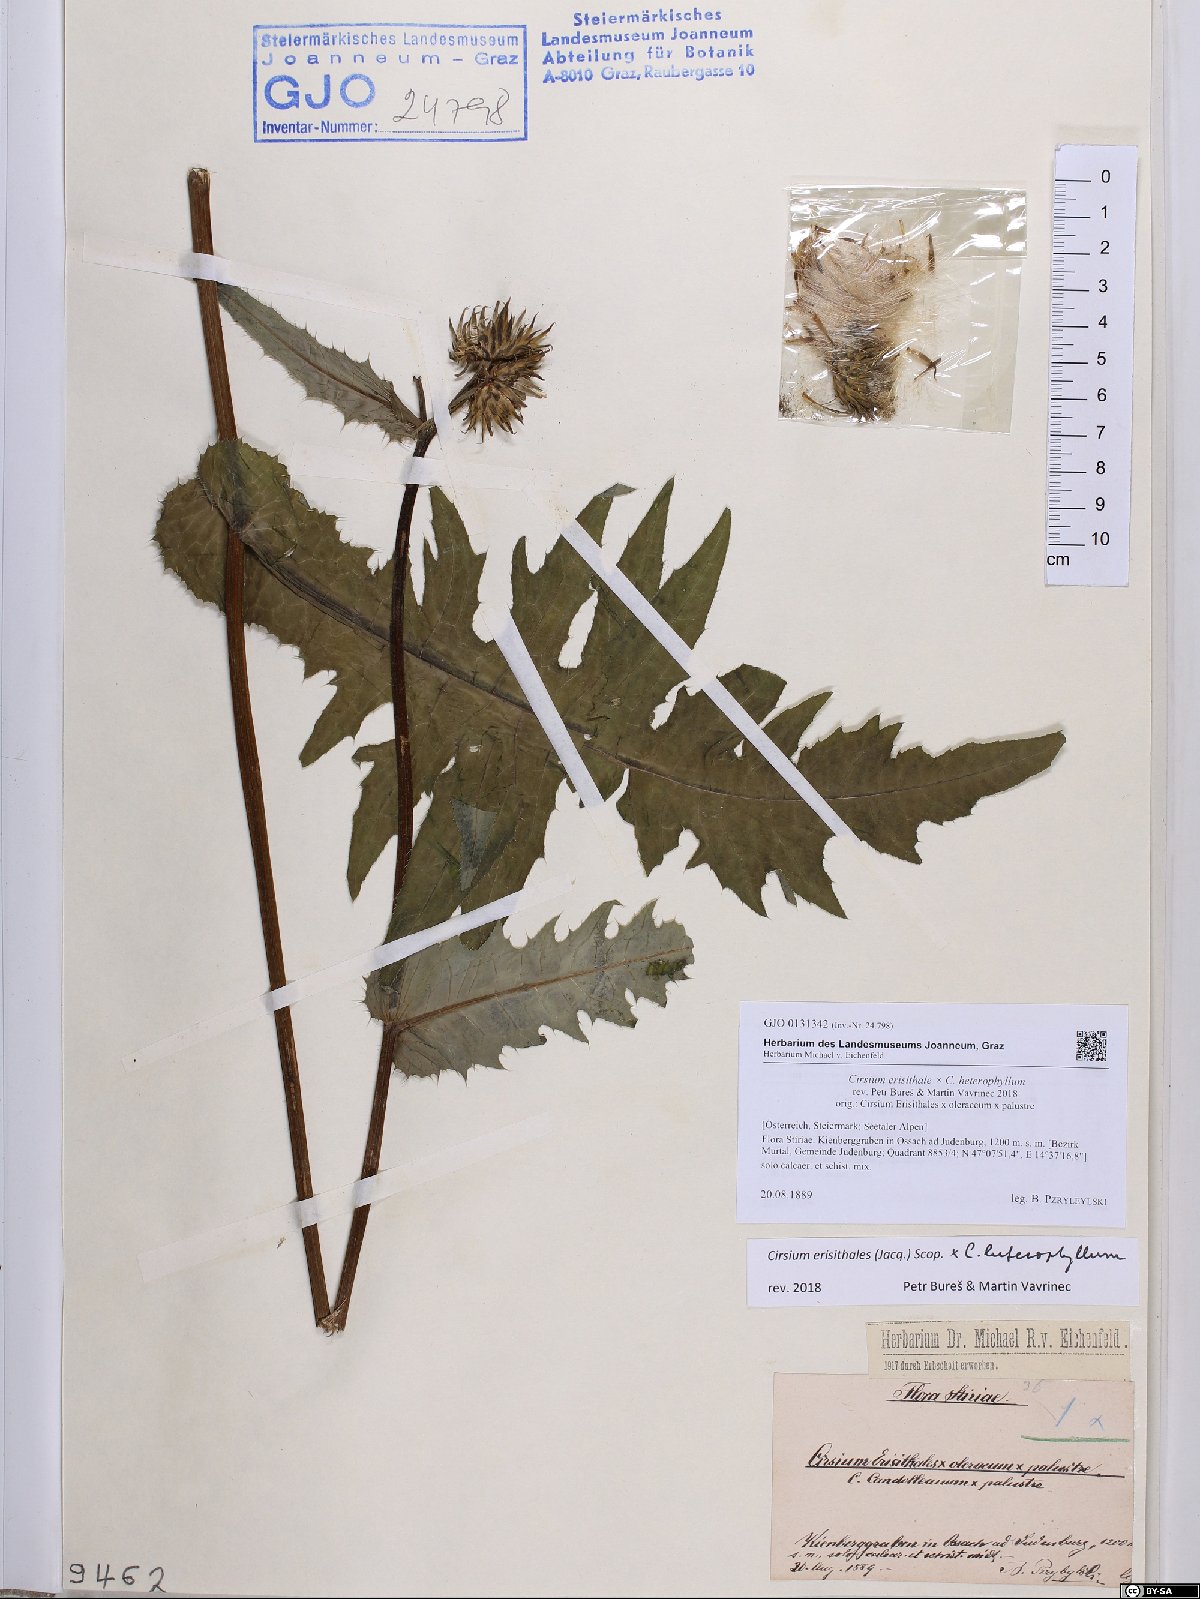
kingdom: Plantae
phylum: Tracheophyta
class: Magnoliopsida
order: Asterales
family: Asteraceae
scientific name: Asteraceae
